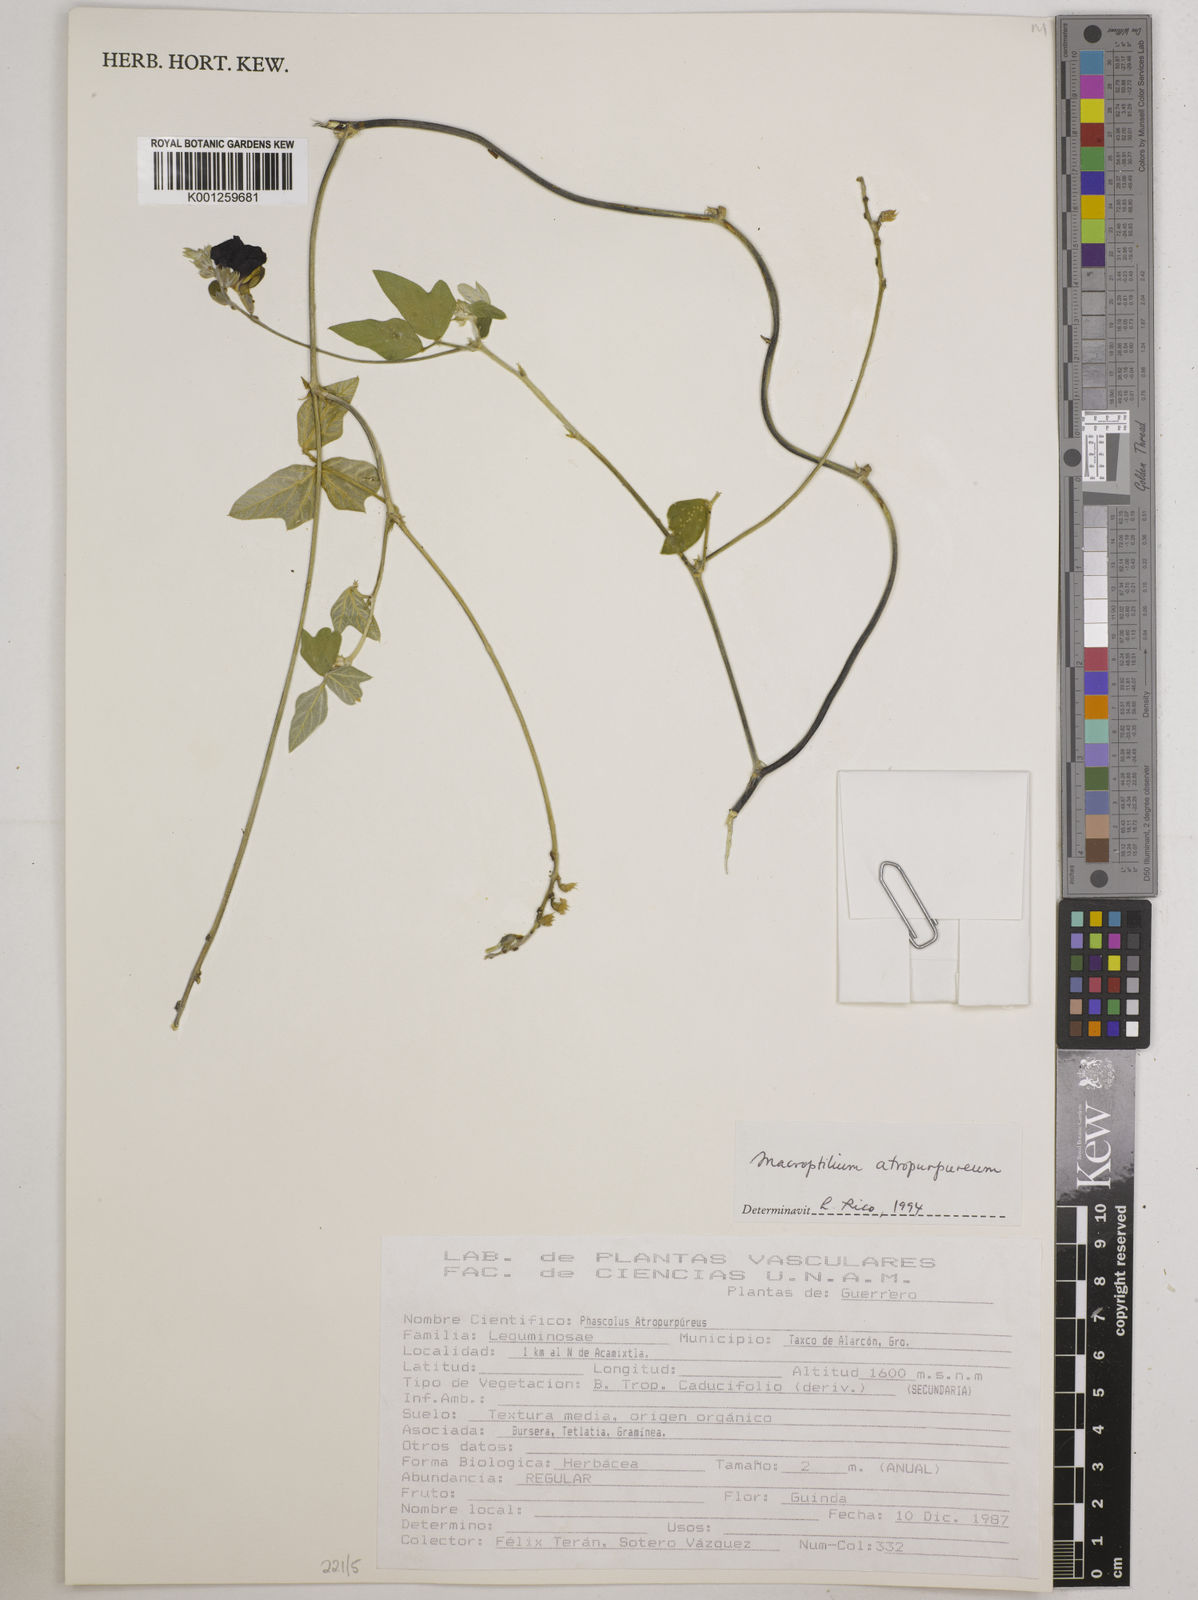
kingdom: Plantae
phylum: Tracheophyta
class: Magnoliopsida
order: Fabales
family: Fabaceae
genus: Macroptilium
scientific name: Macroptilium atropurpureum
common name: Purple bushbean
